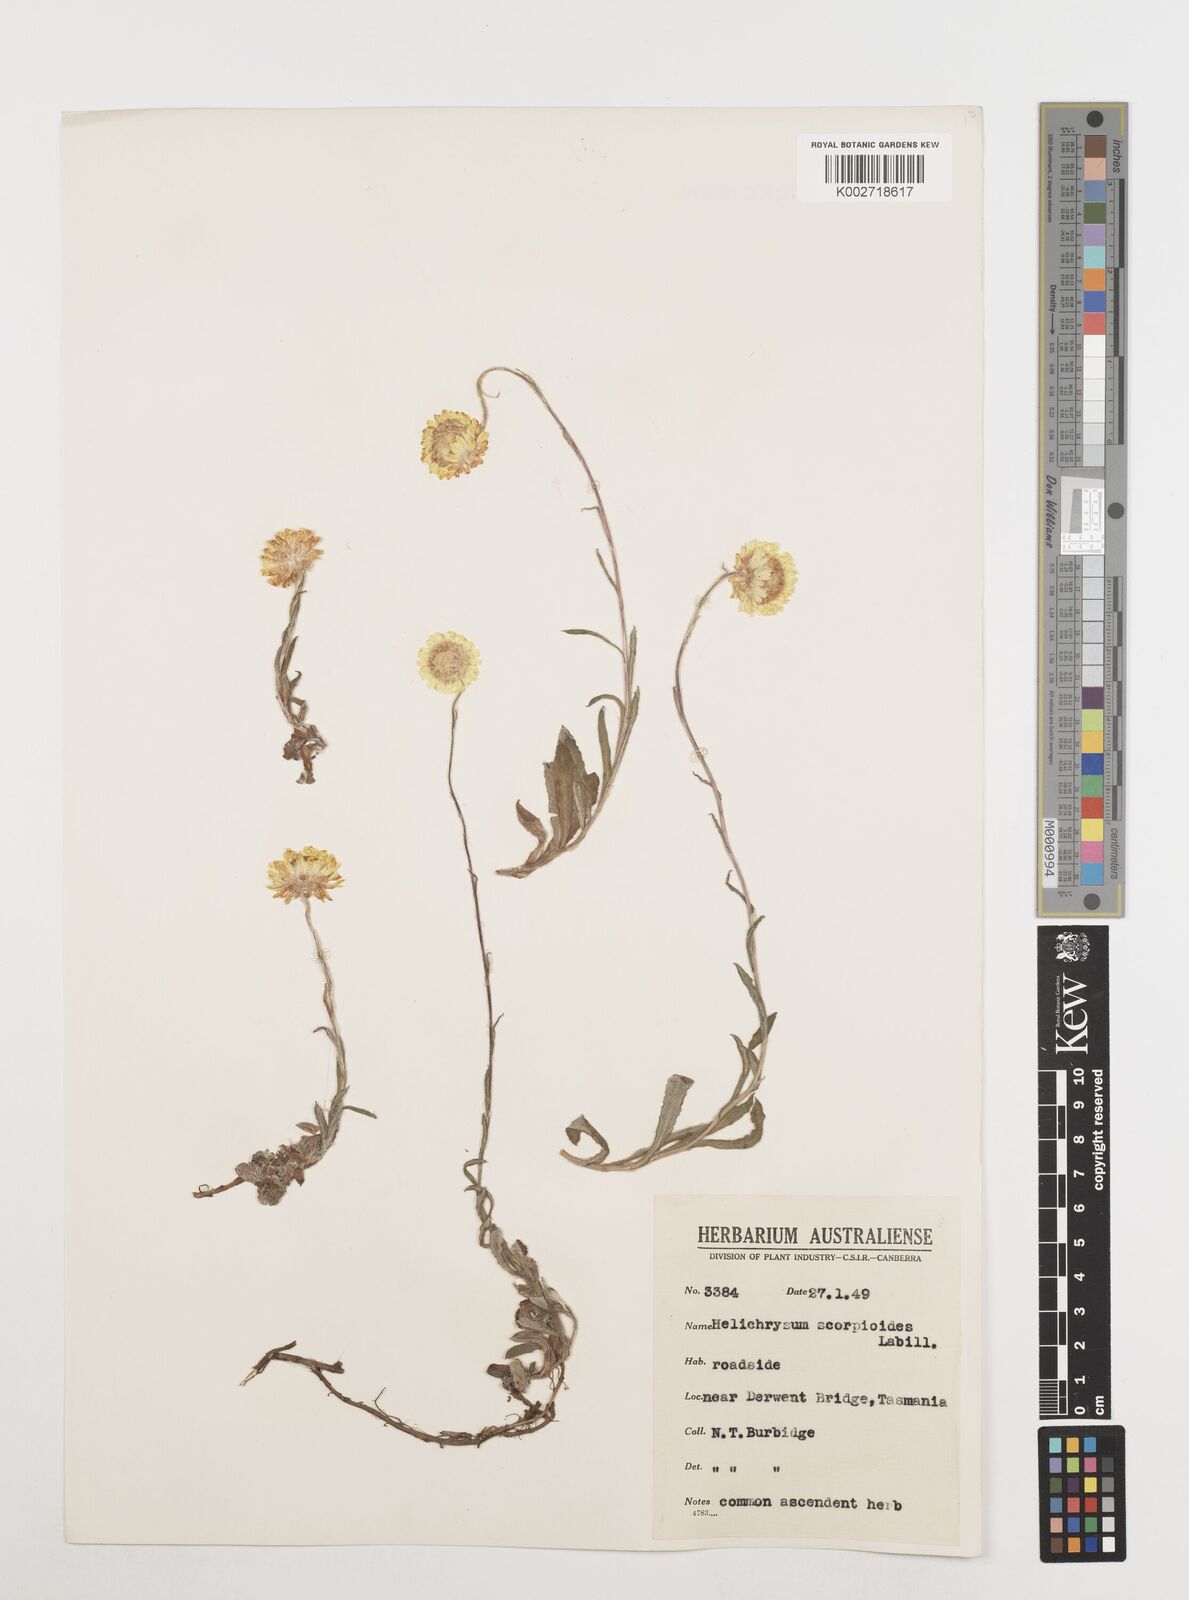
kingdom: Plantae
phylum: Tracheophyta
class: Magnoliopsida
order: Asterales
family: Asteraceae
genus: Coronidium
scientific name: Coronidium scorpioides
